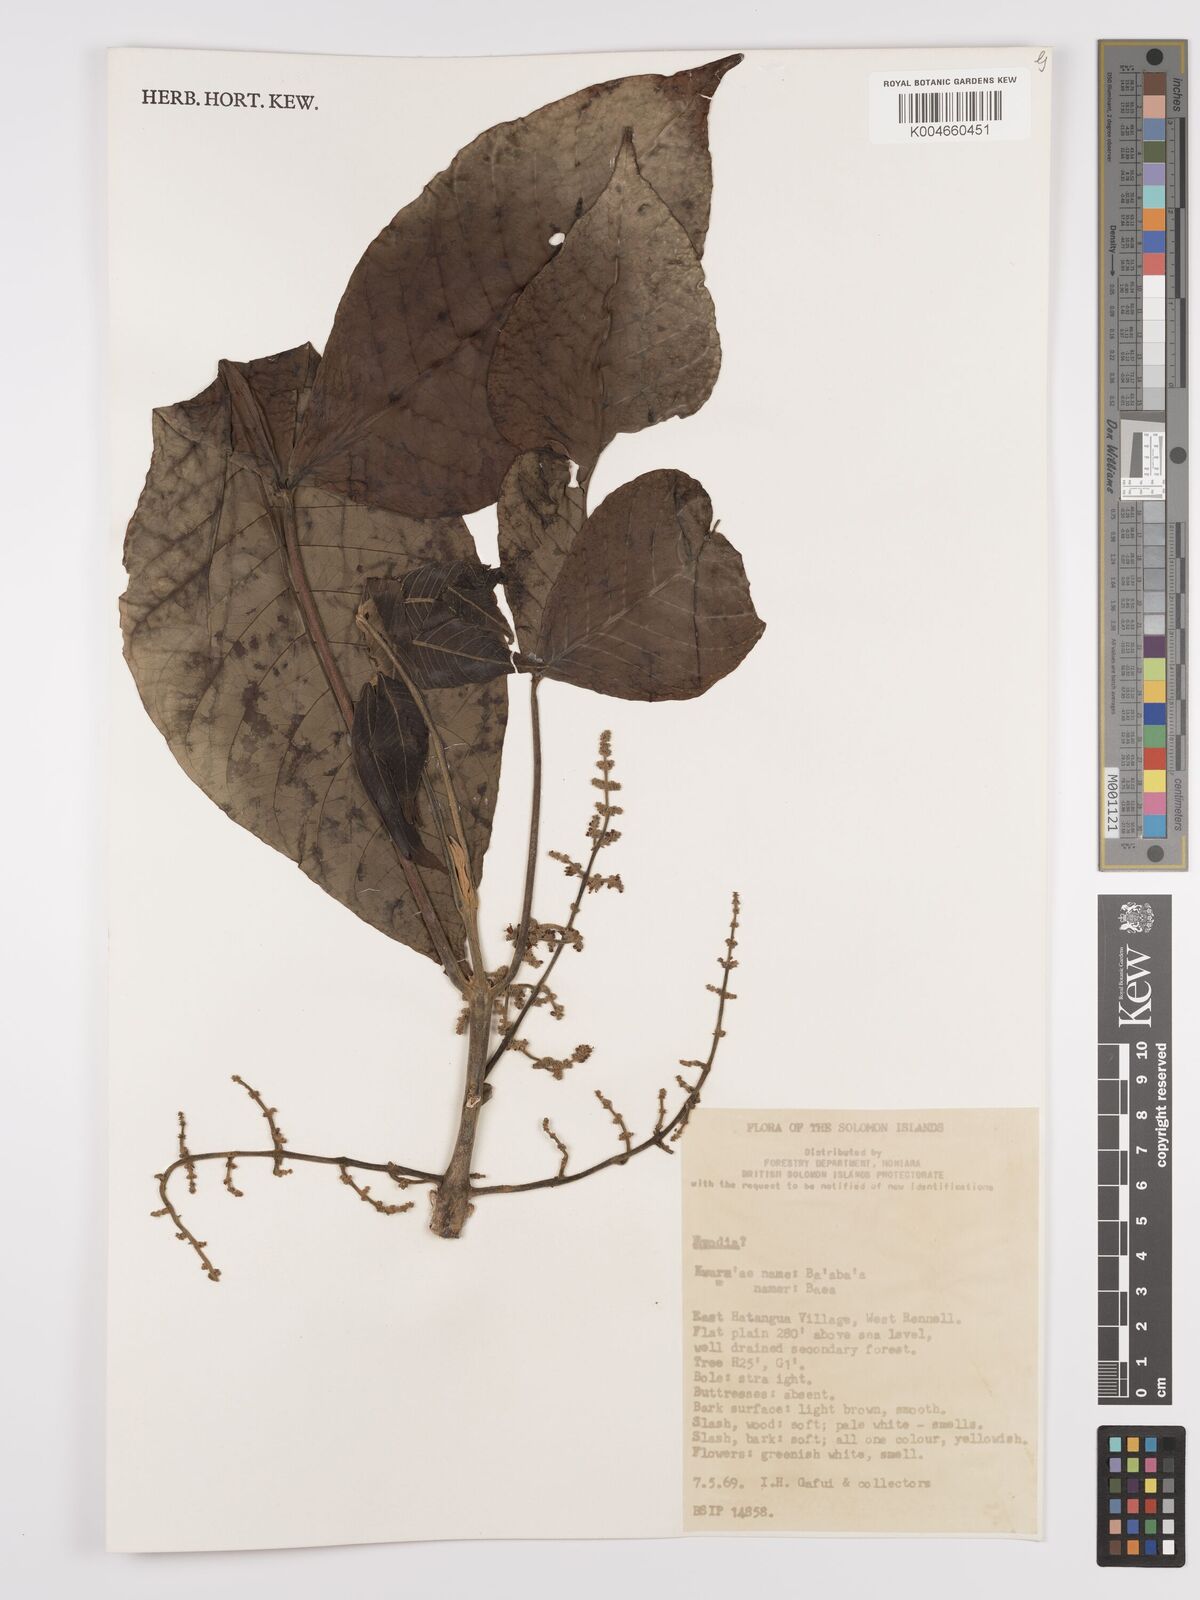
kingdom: Plantae
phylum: Tracheophyta
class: Magnoliopsida
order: Sapindales
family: Rutaceae
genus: Euodia
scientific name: Euodia
